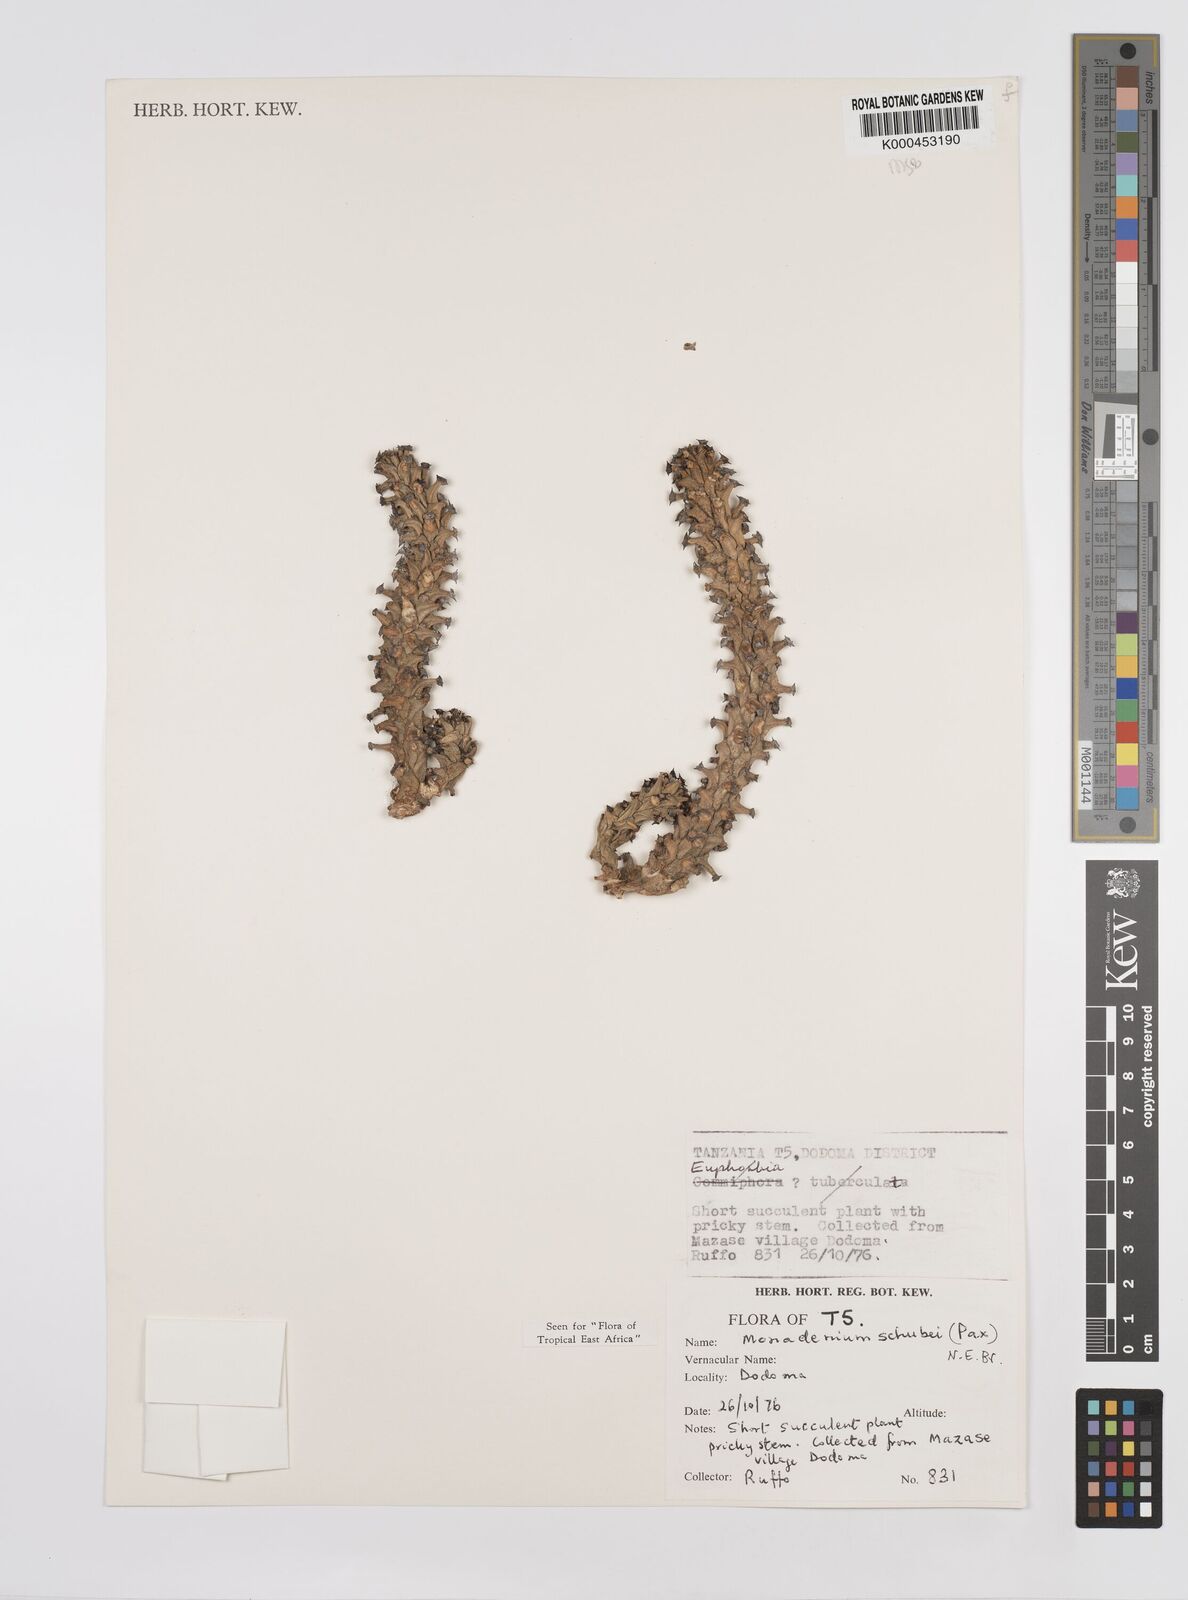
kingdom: Plantae
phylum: Tracheophyta
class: Magnoliopsida
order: Malpighiales
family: Euphorbiaceae
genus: Euphorbia
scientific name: Euphorbia schubei
